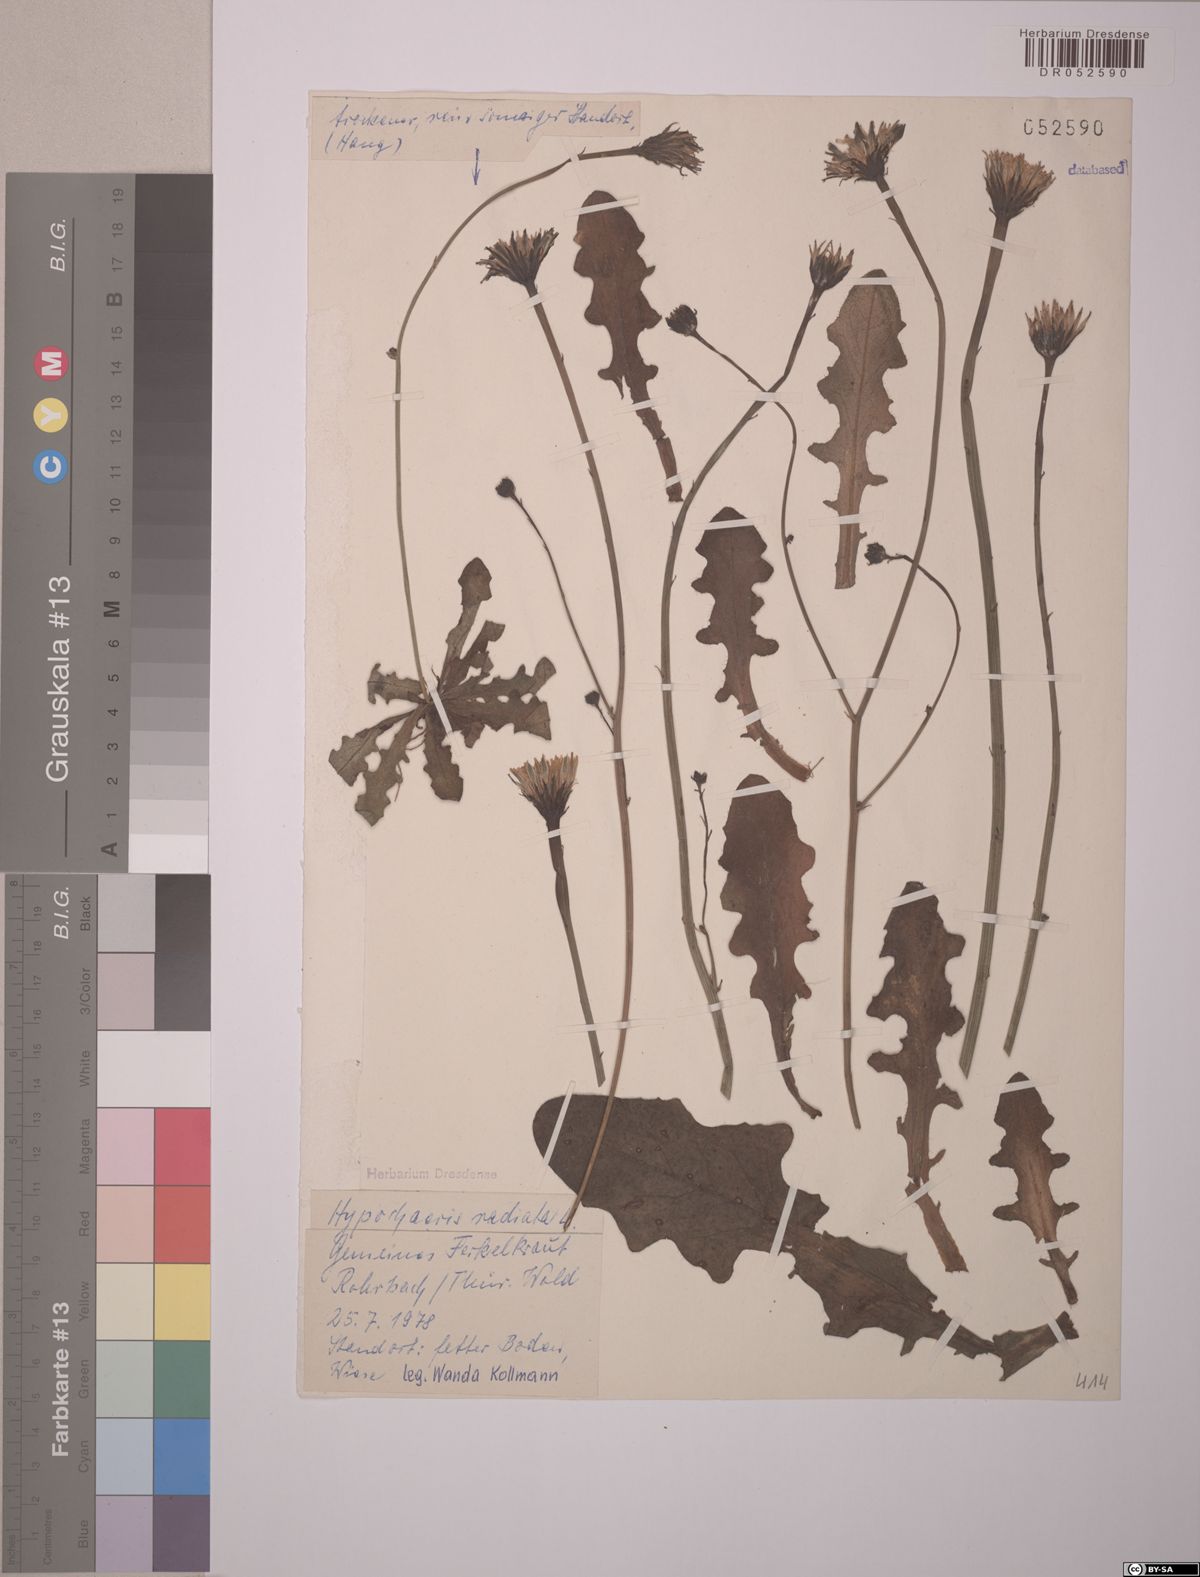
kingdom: Plantae
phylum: Tracheophyta
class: Magnoliopsida
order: Asterales
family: Asteraceae
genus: Hypochaeris
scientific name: Hypochaeris radicata
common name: Flatweed
